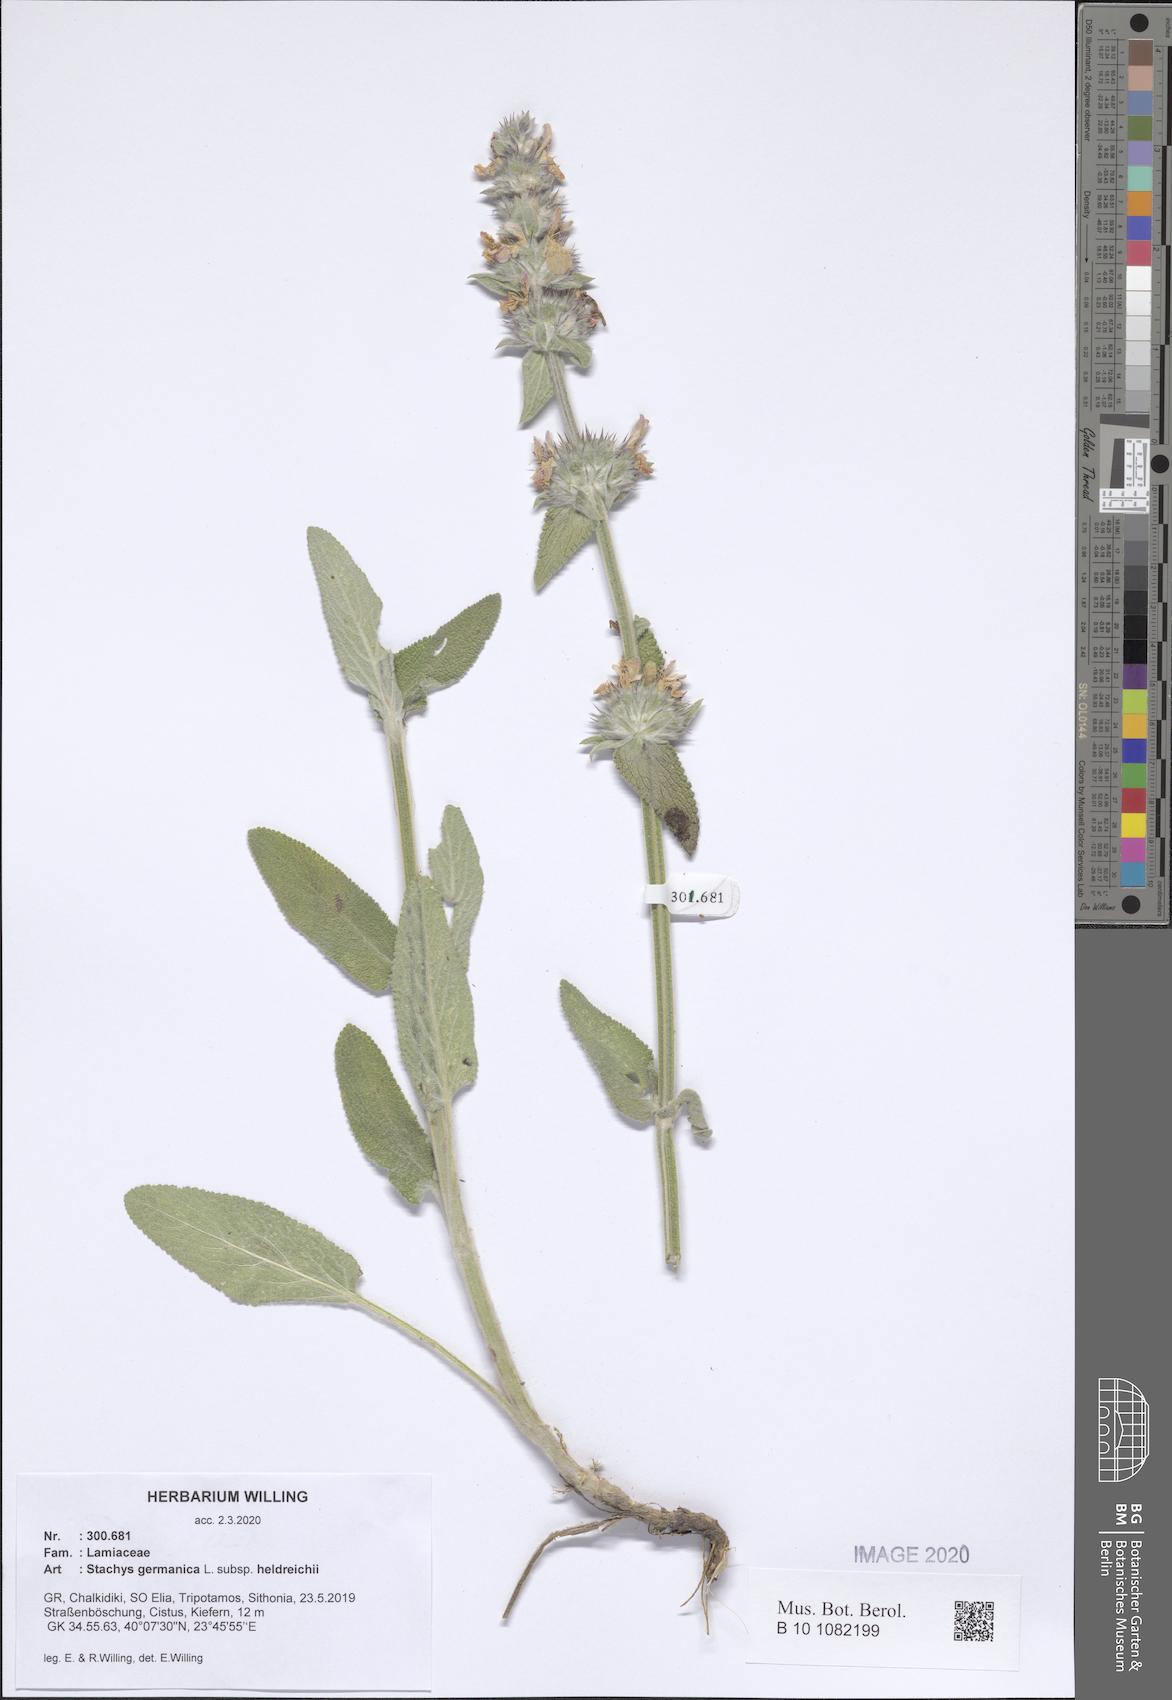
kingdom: Plantae
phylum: Tracheophyta
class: Magnoliopsida
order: Lamiales
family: Lamiaceae
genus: Stachys
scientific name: Stachys germanica
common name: Downy woundwort
